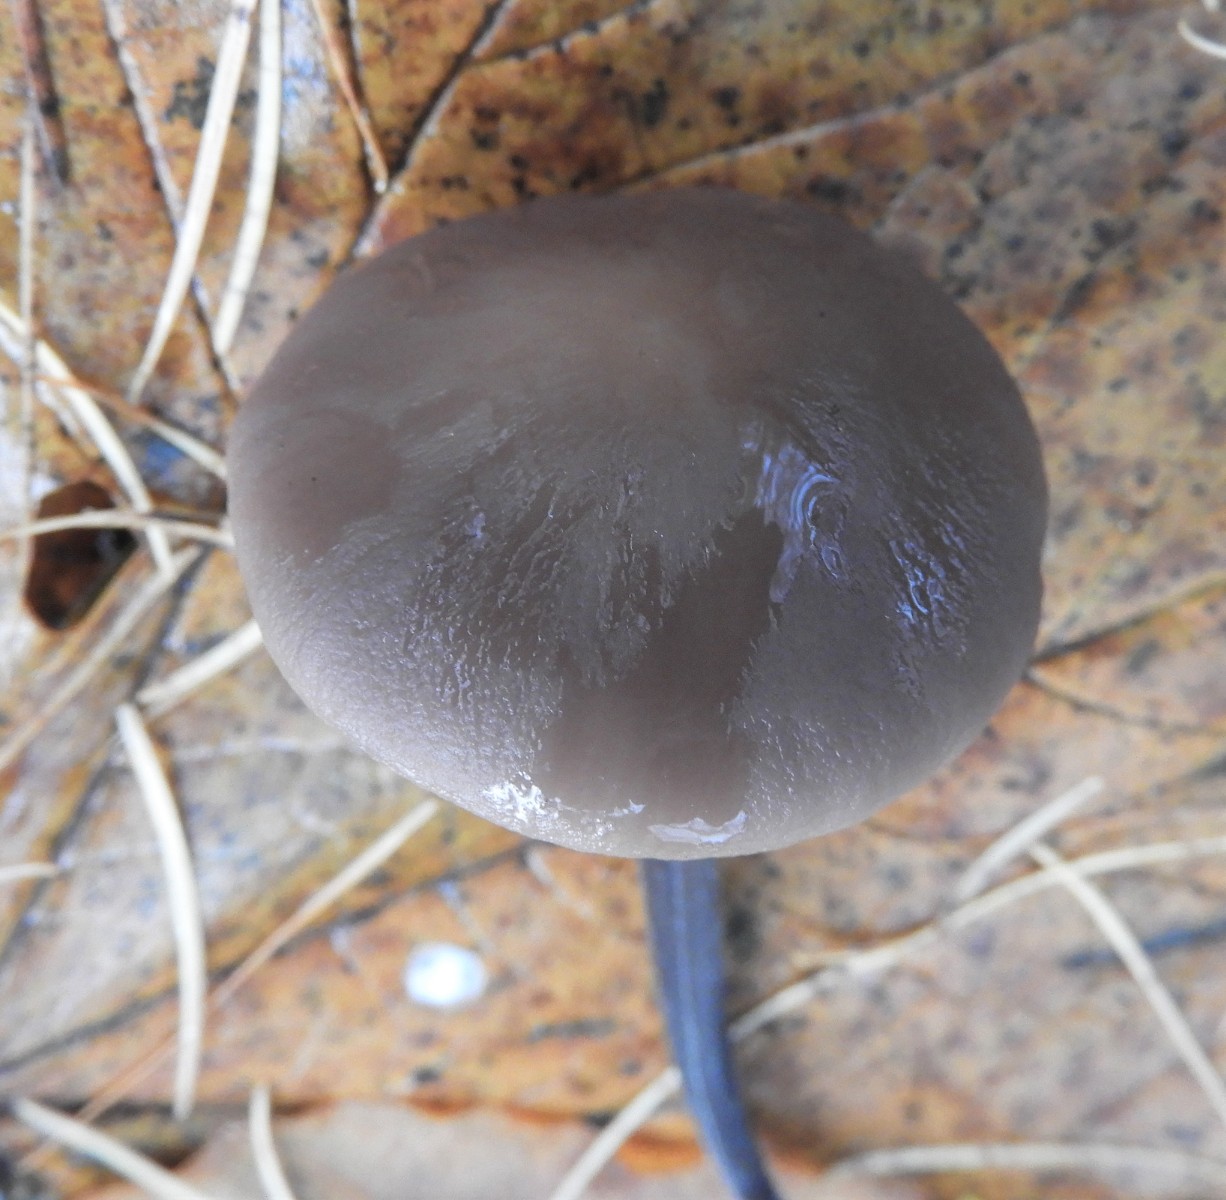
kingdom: Fungi
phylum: Basidiomycota
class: Agaricomycetes
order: Agaricales
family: Omphalotaceae
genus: Mycetinis
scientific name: Mycetinis alliaceus
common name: stor løghat
